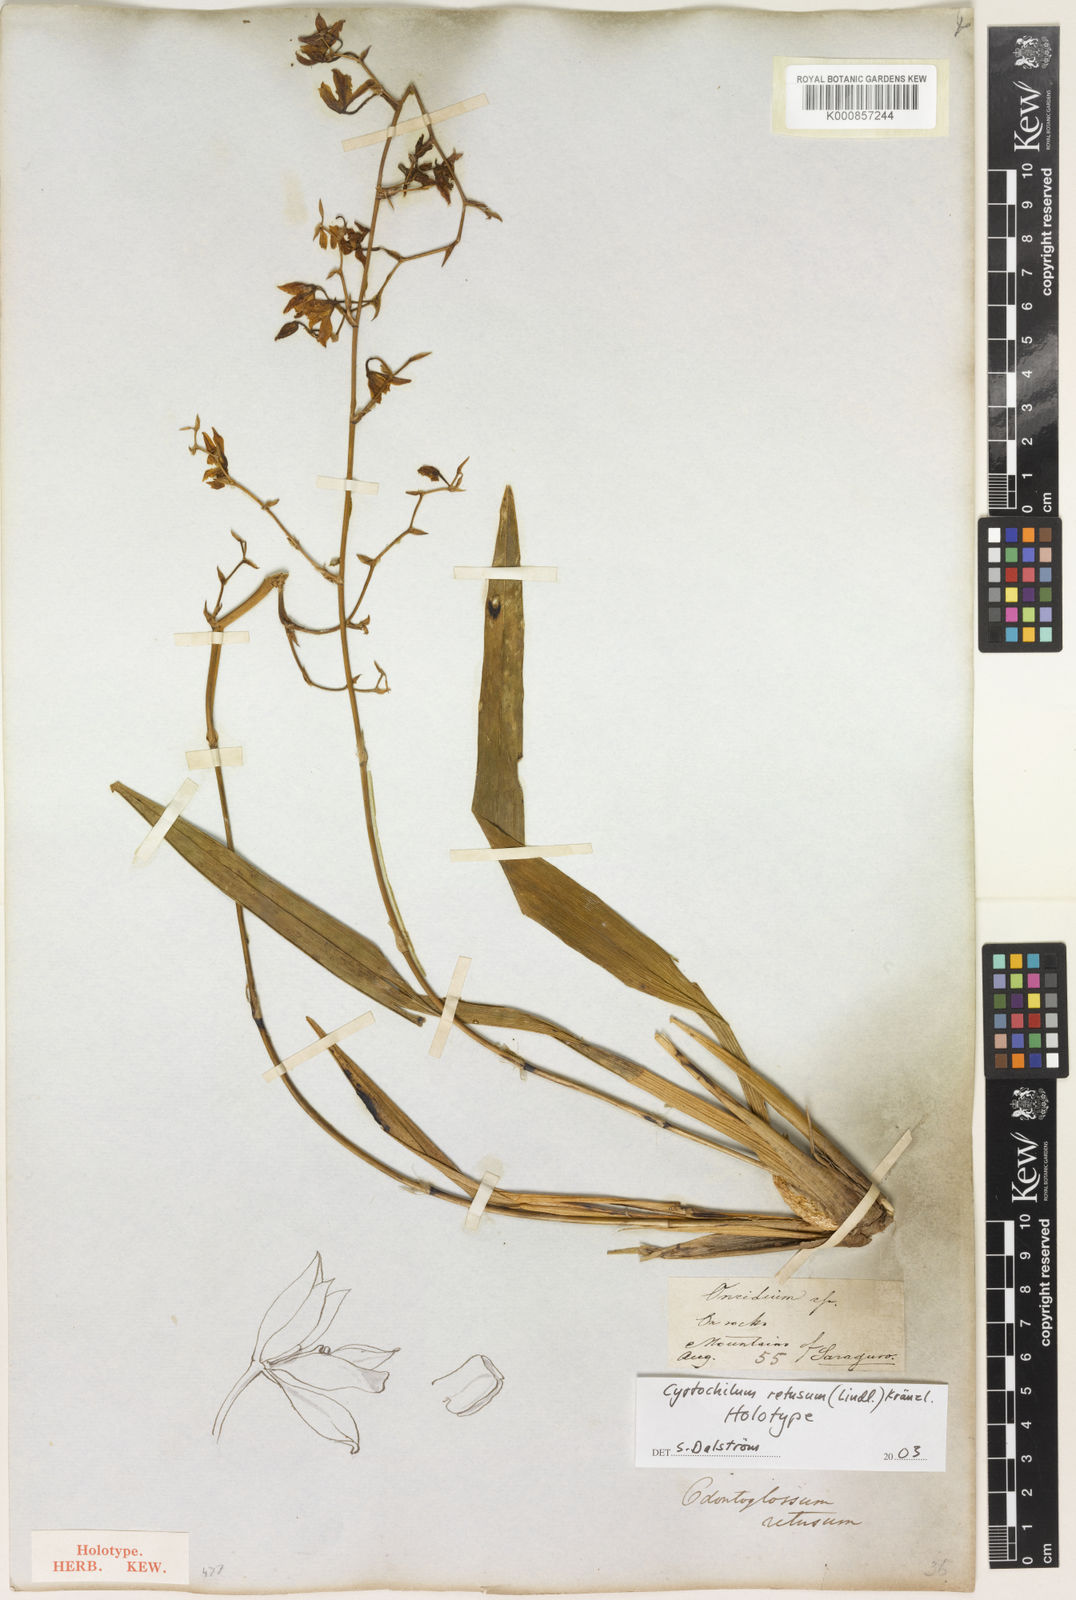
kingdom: Plantae
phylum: Tracheophyta
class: Liliopsida
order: Asparagales
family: Orchidaceae
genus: Cyrtochilum
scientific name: Cyrtochilum retusum
